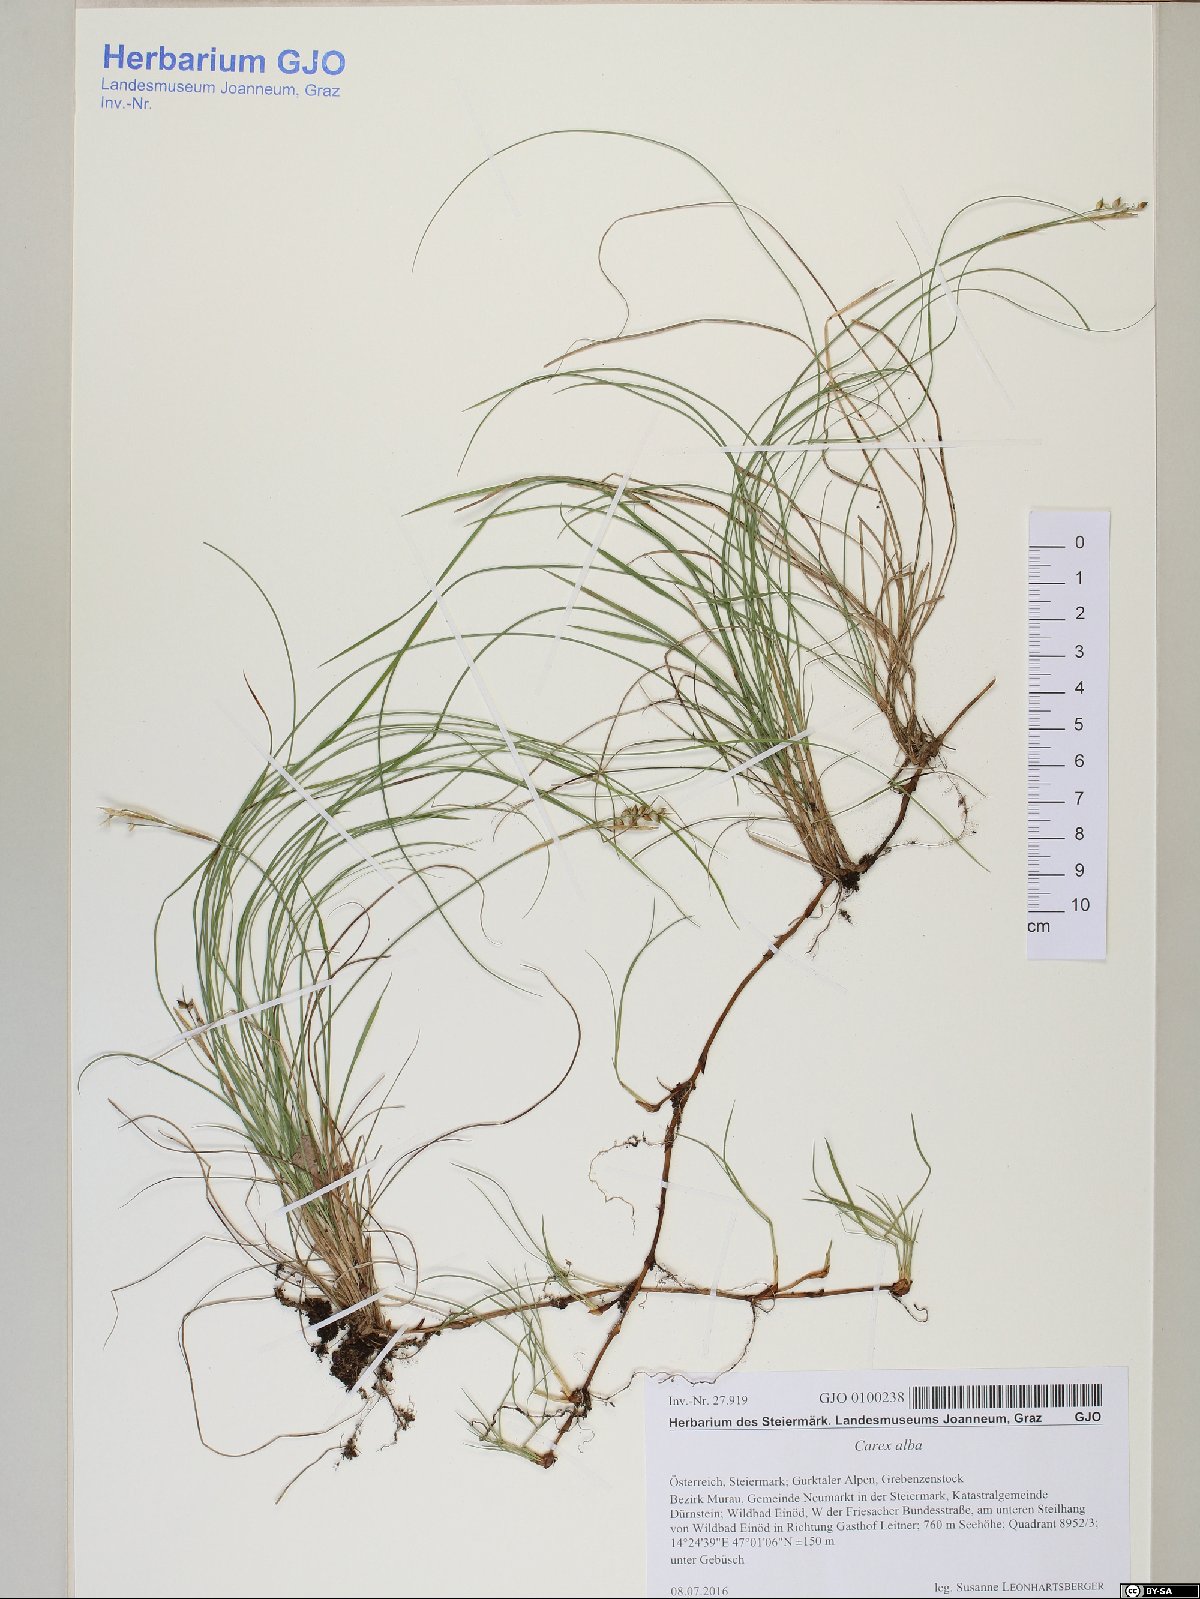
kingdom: Plantae
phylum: Tracheophyta
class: Liliopsida
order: Poales
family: Cyperaceae
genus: Carex
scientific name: Carex alba
